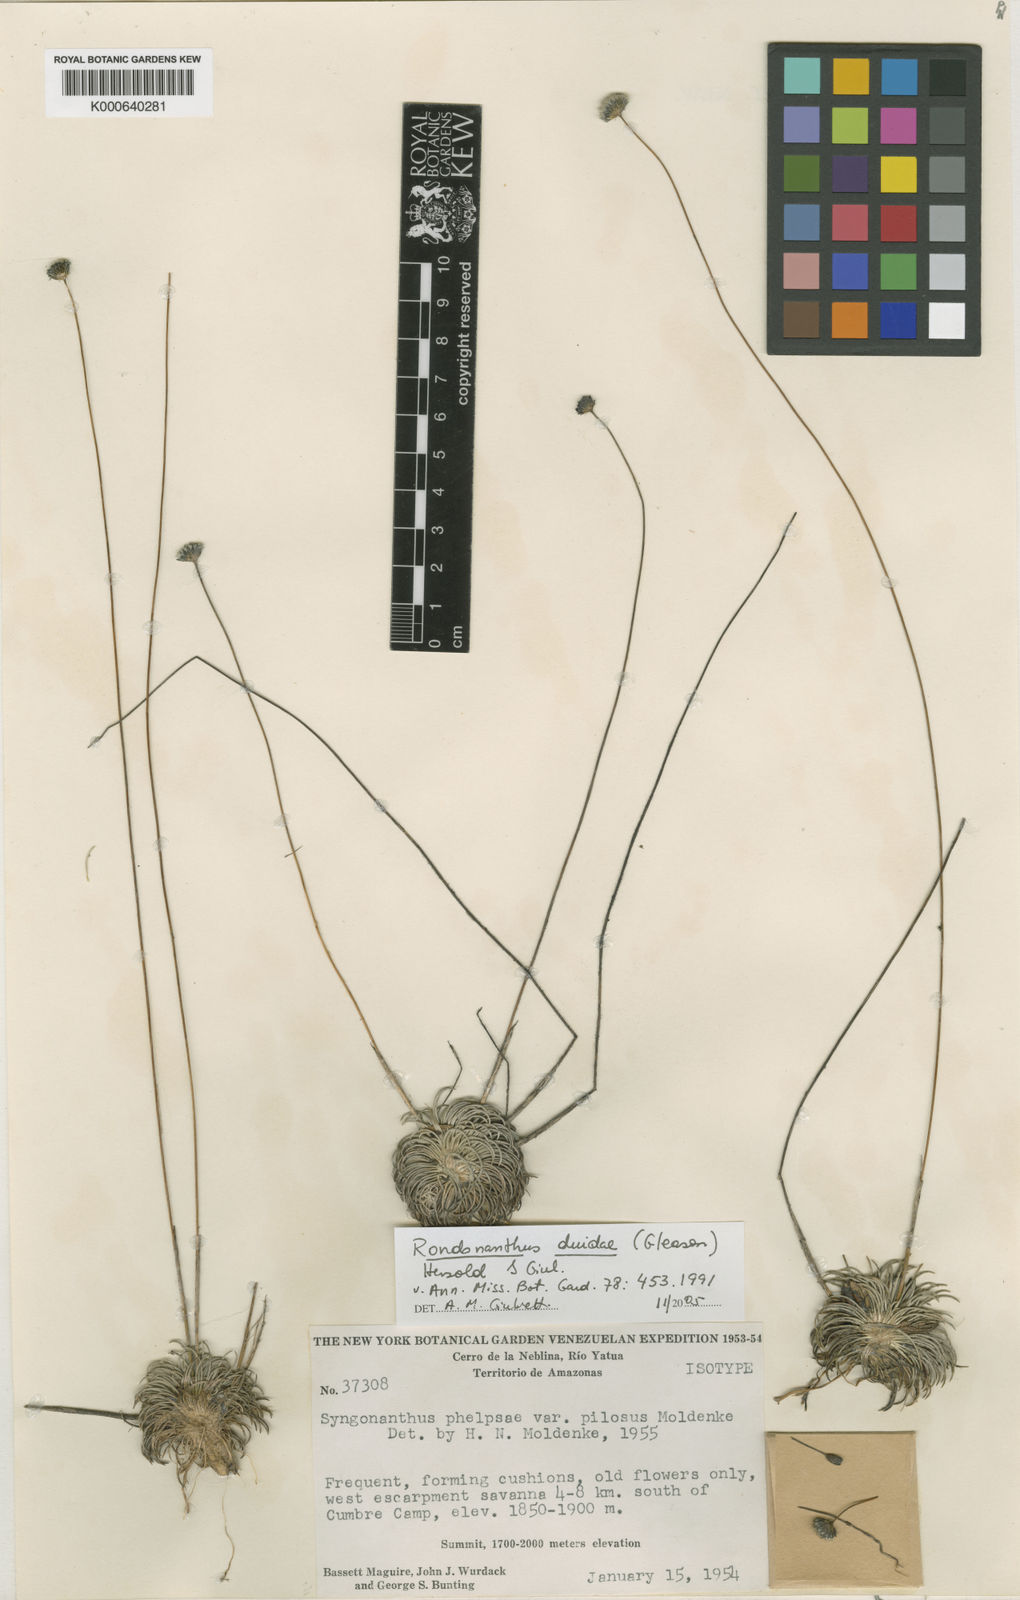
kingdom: Plantae
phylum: Tracheophyta
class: Liliopsida
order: Poales
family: Eriocaulaceae
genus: Rondonanthus
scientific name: Rondonanthus duidae
